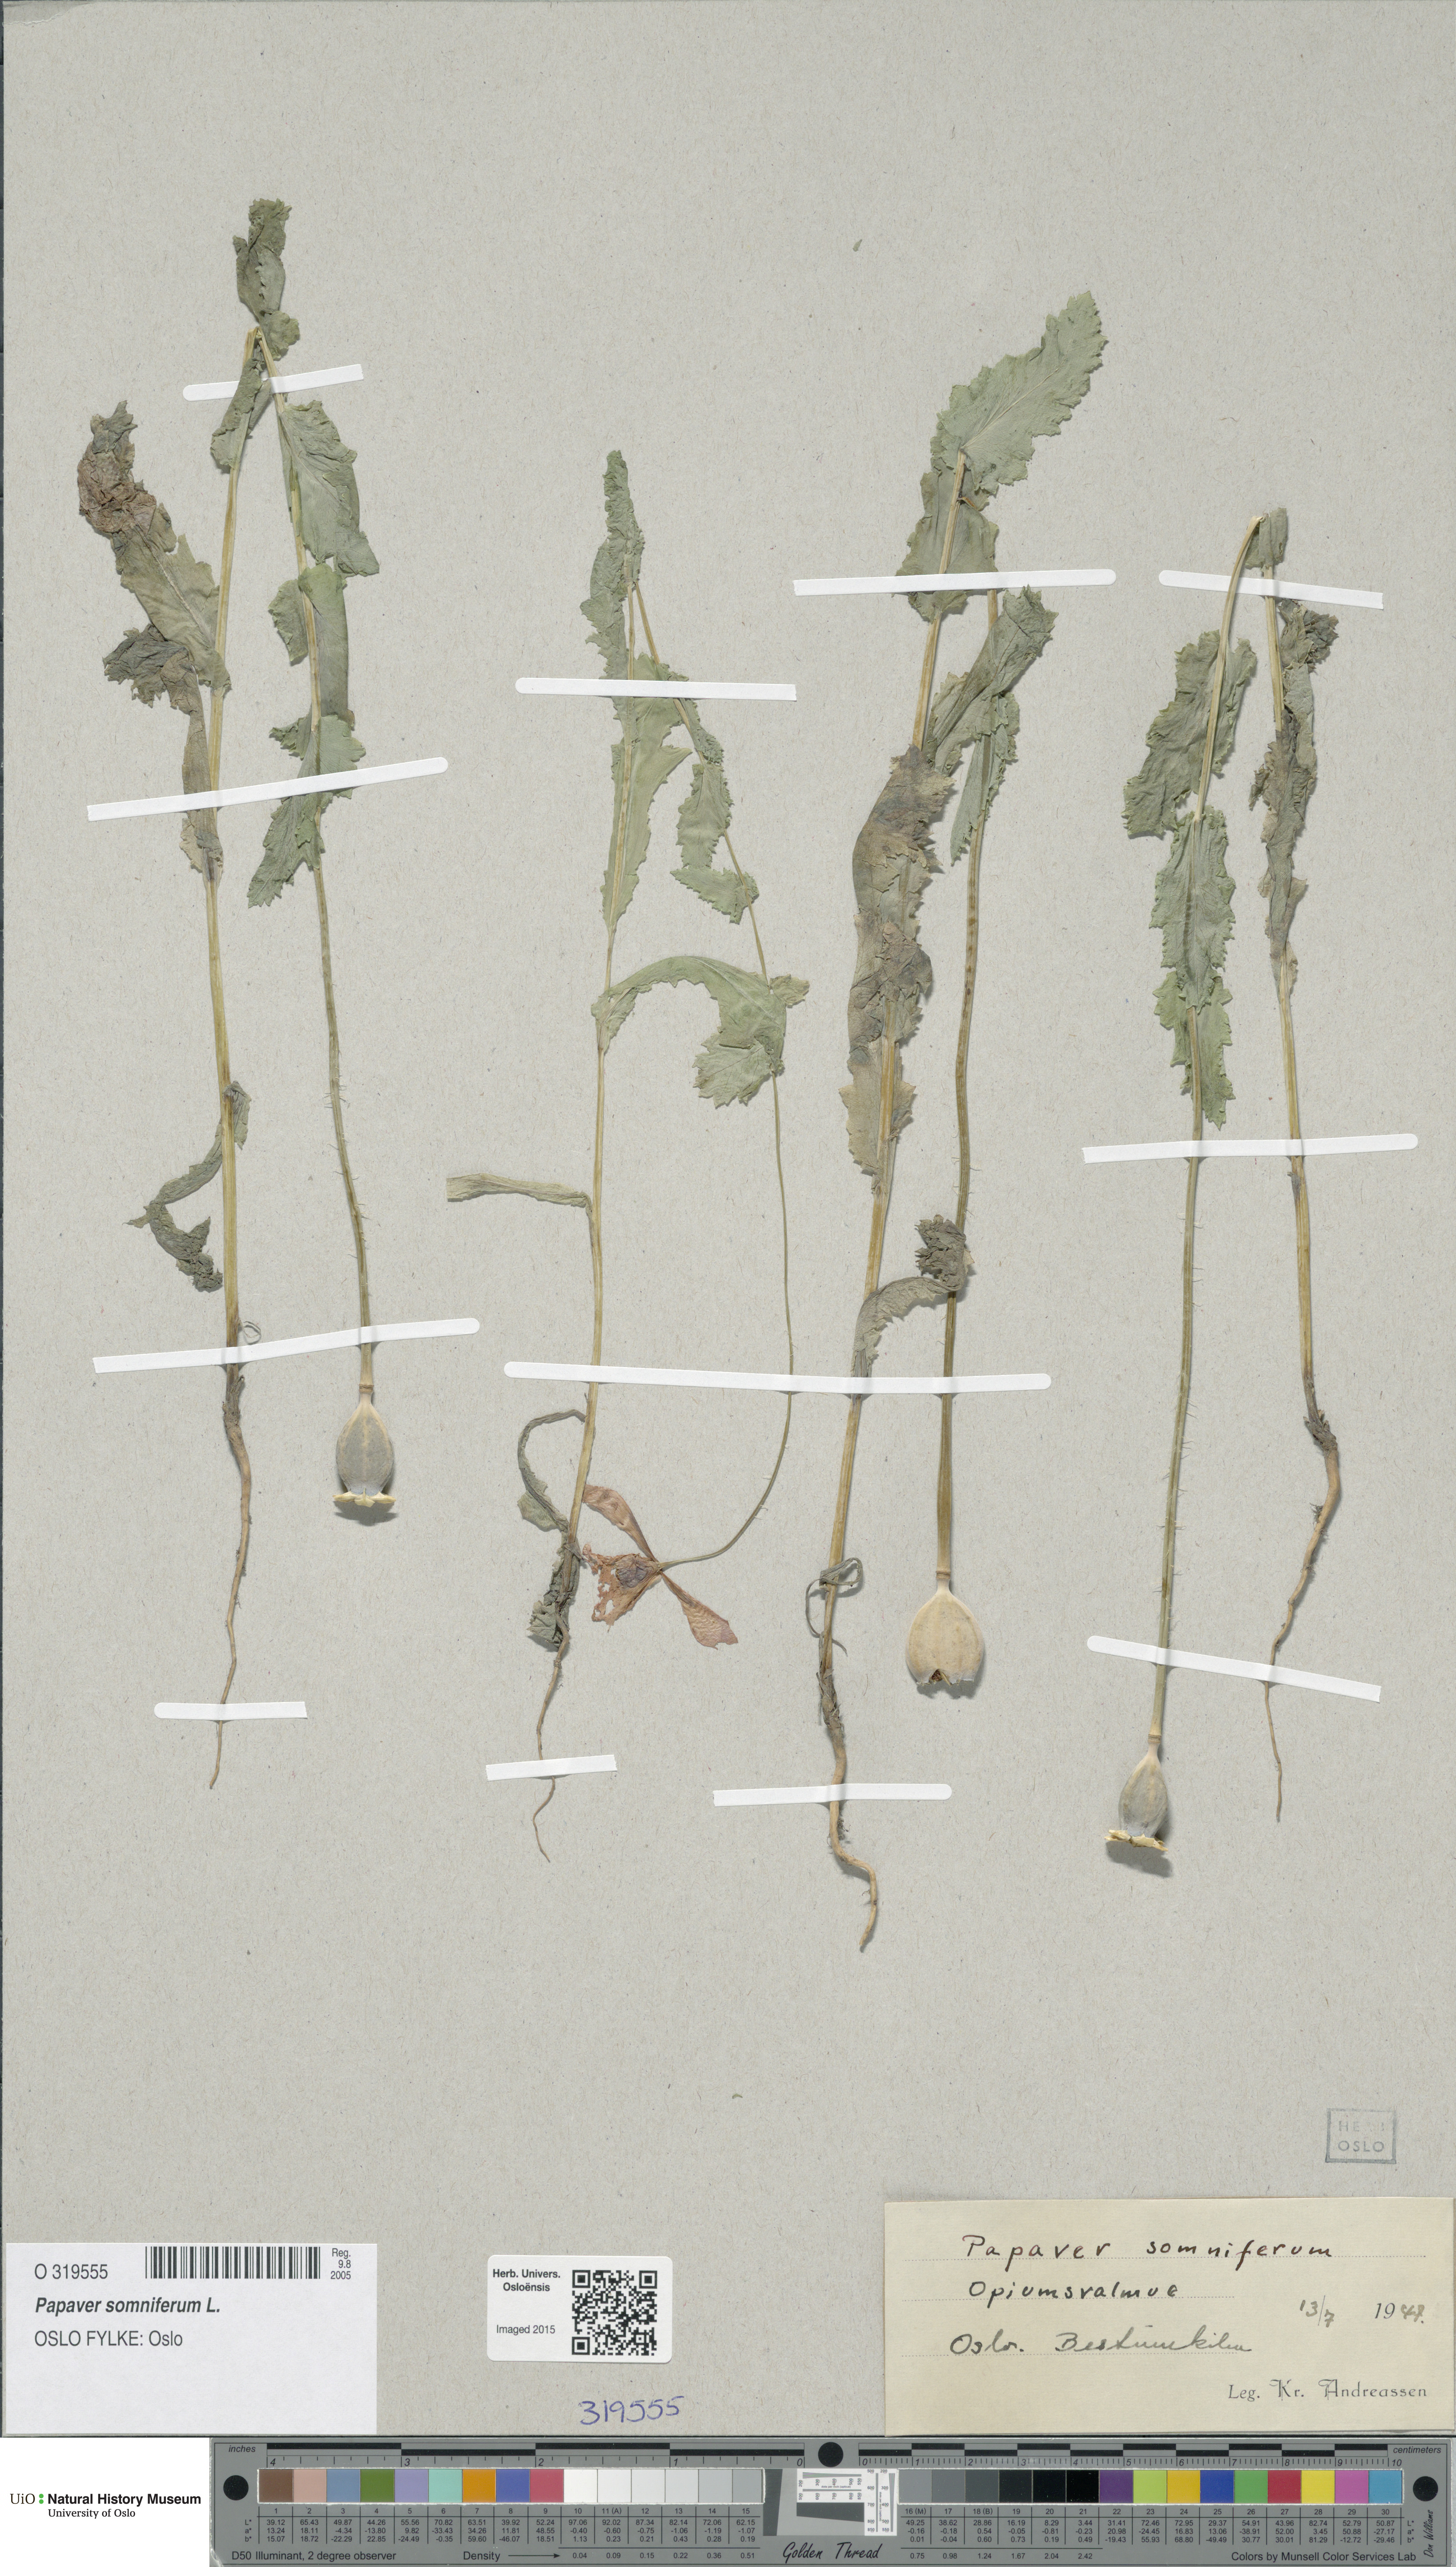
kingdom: Plantae
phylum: Tracheophyta
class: Magnoliopsida
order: Ranunculales
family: Papaveraceae
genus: Papaver
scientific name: Papaver somniferum
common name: Opium poppy
